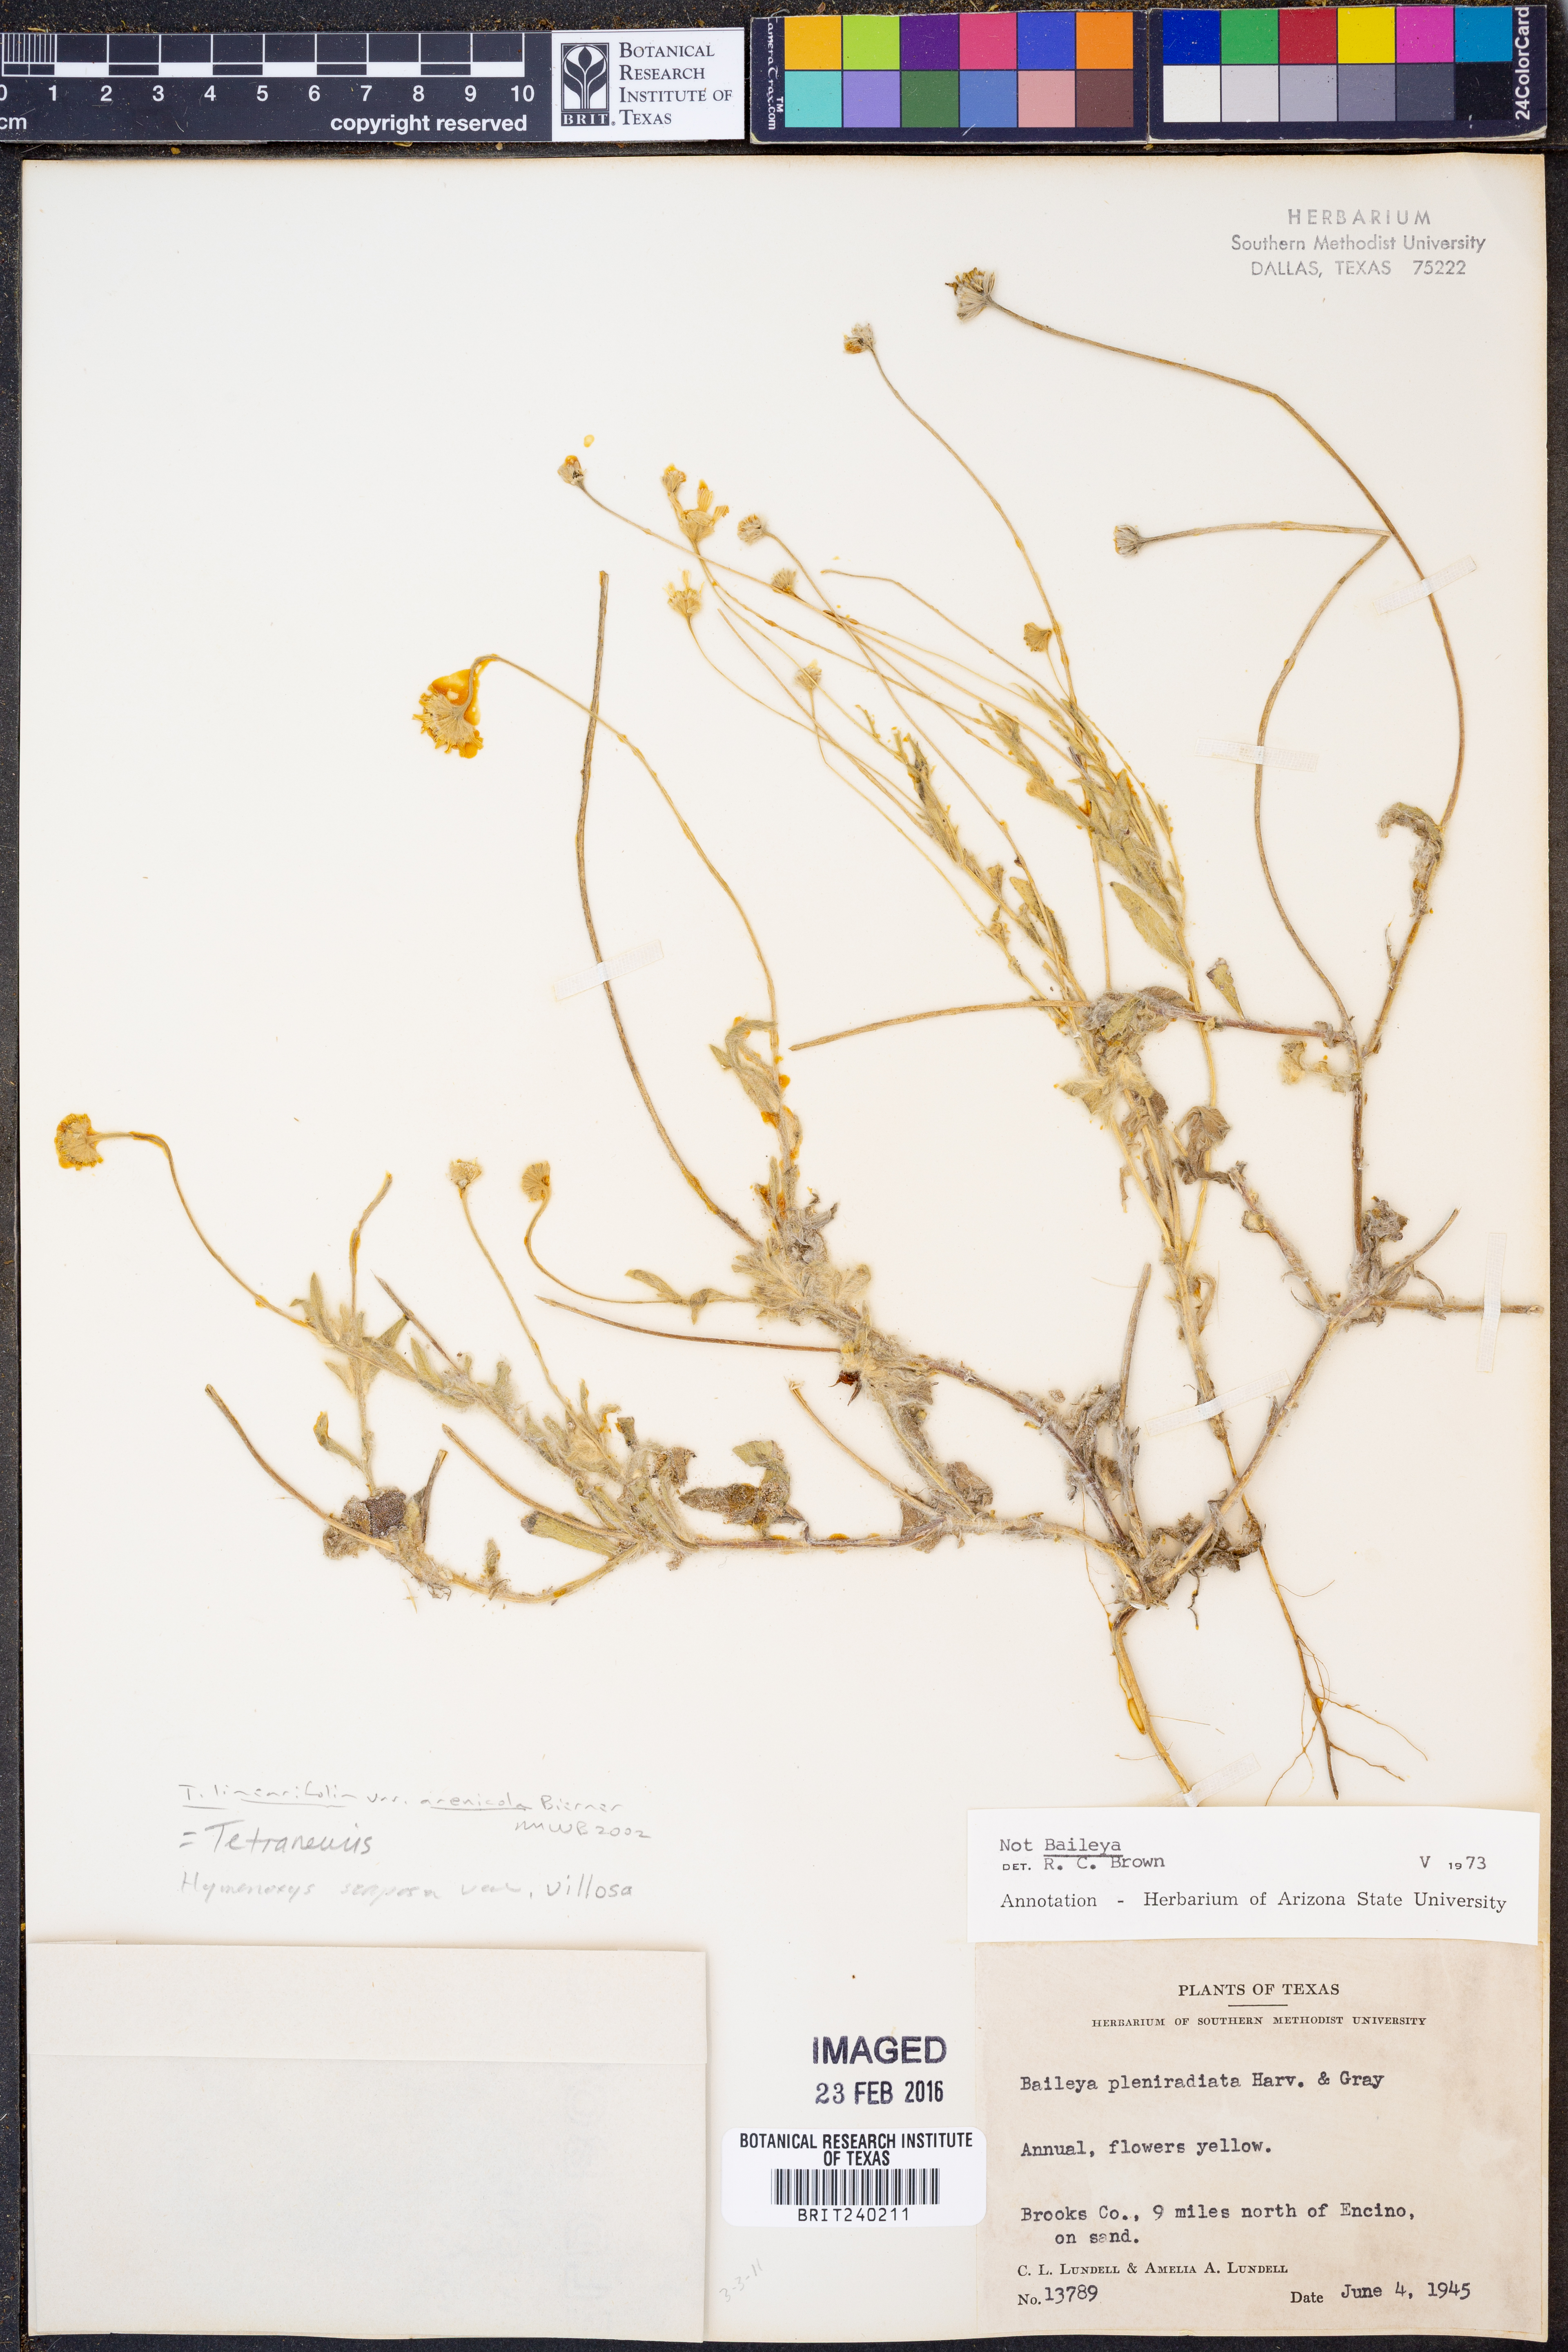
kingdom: Plantae
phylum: Tracheophyta
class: Magnoliopsida
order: Asterales
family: Asteraceae
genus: Tetraneuris
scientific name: Tetraneuris linearifolia
